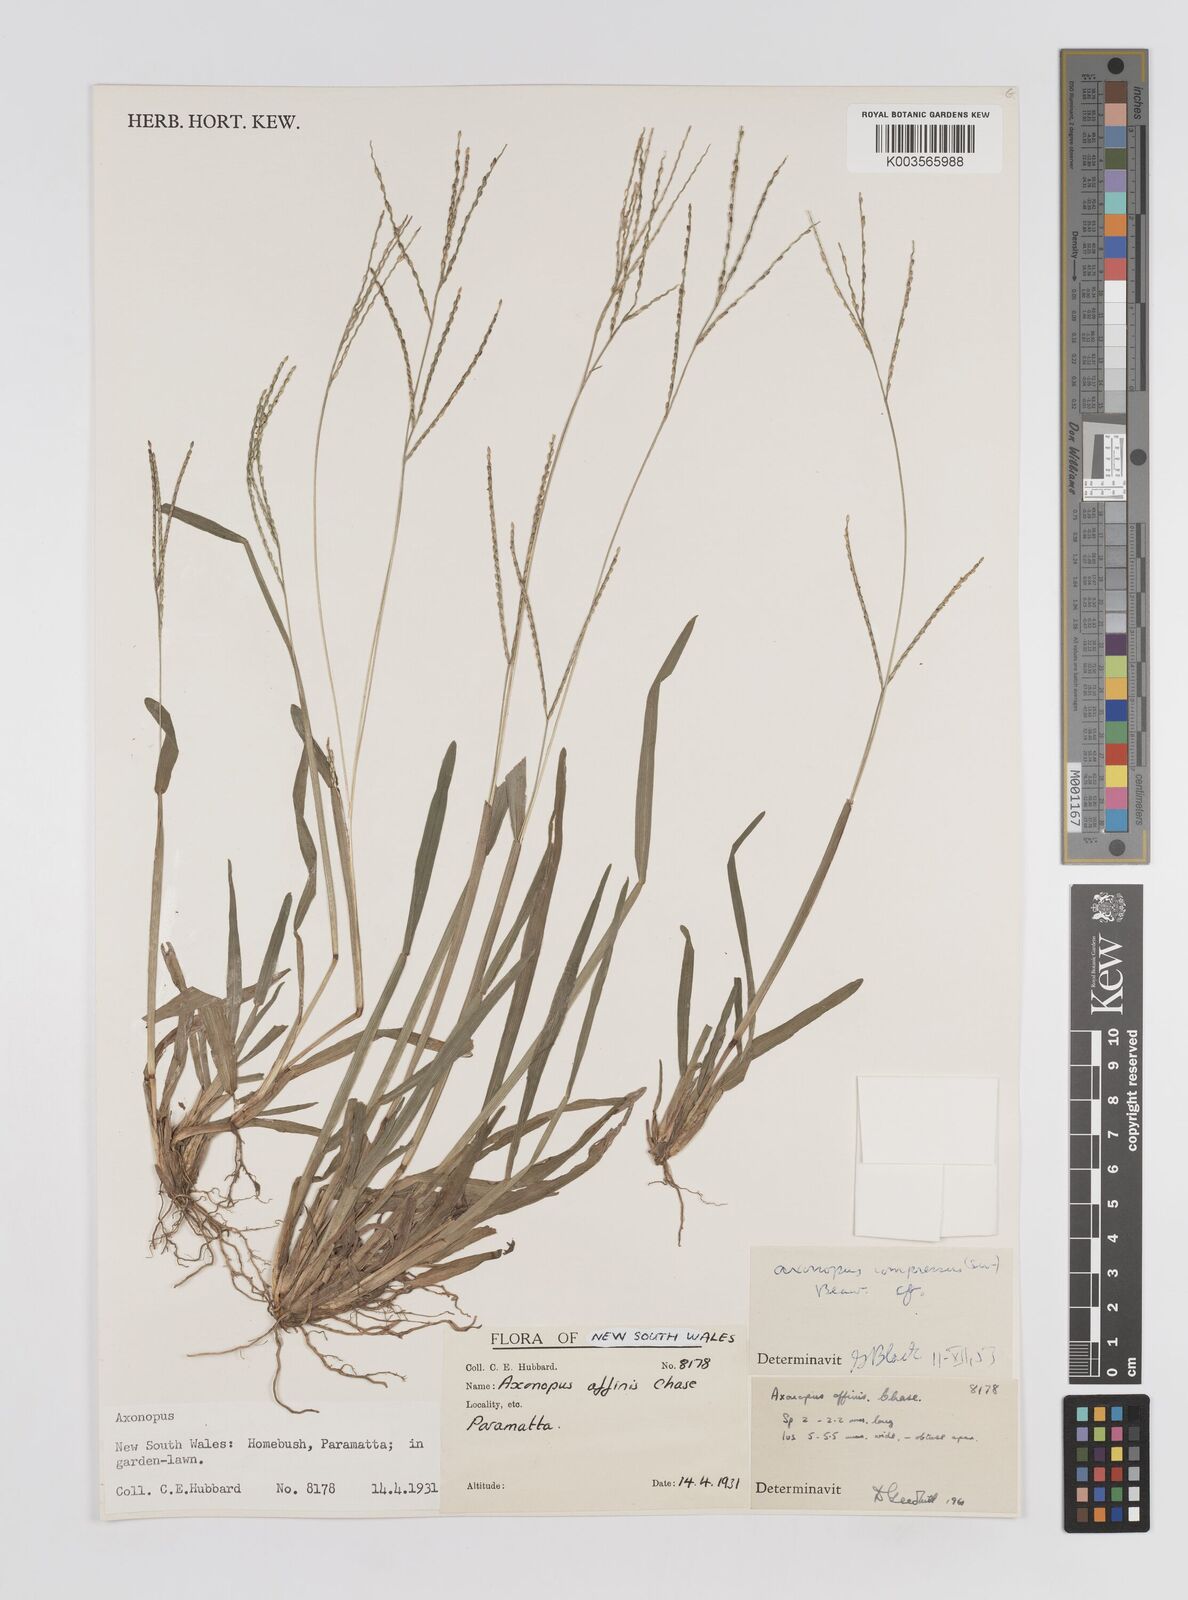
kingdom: Plantae
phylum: Tracheophyta
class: Liliopsida
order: Poales
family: Poaceae
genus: Axonopus
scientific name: Axonopus compressus
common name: American carpet grass
